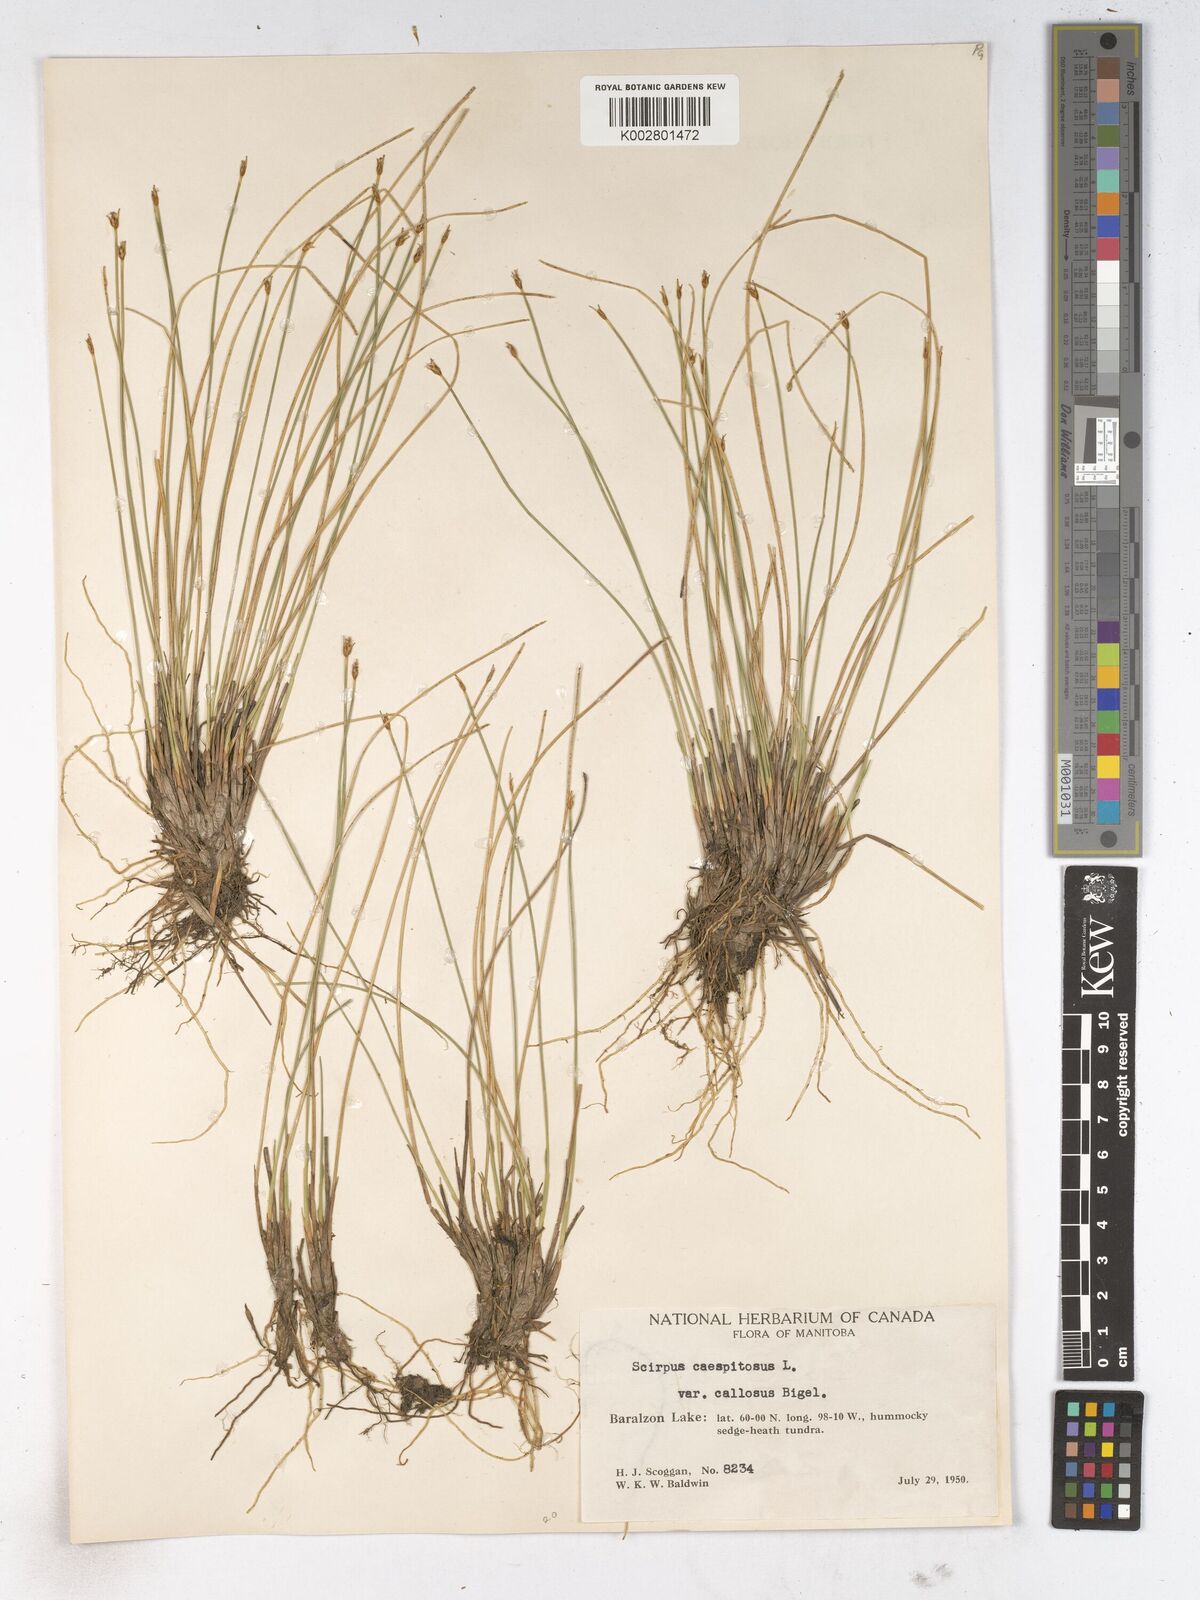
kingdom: Plantae
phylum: Tracheophyta
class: Liliopsida
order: Poales
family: Cyperaceae
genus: Trichophorum
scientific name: Trichophorum cespitosum
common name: Cespitose bulrush
